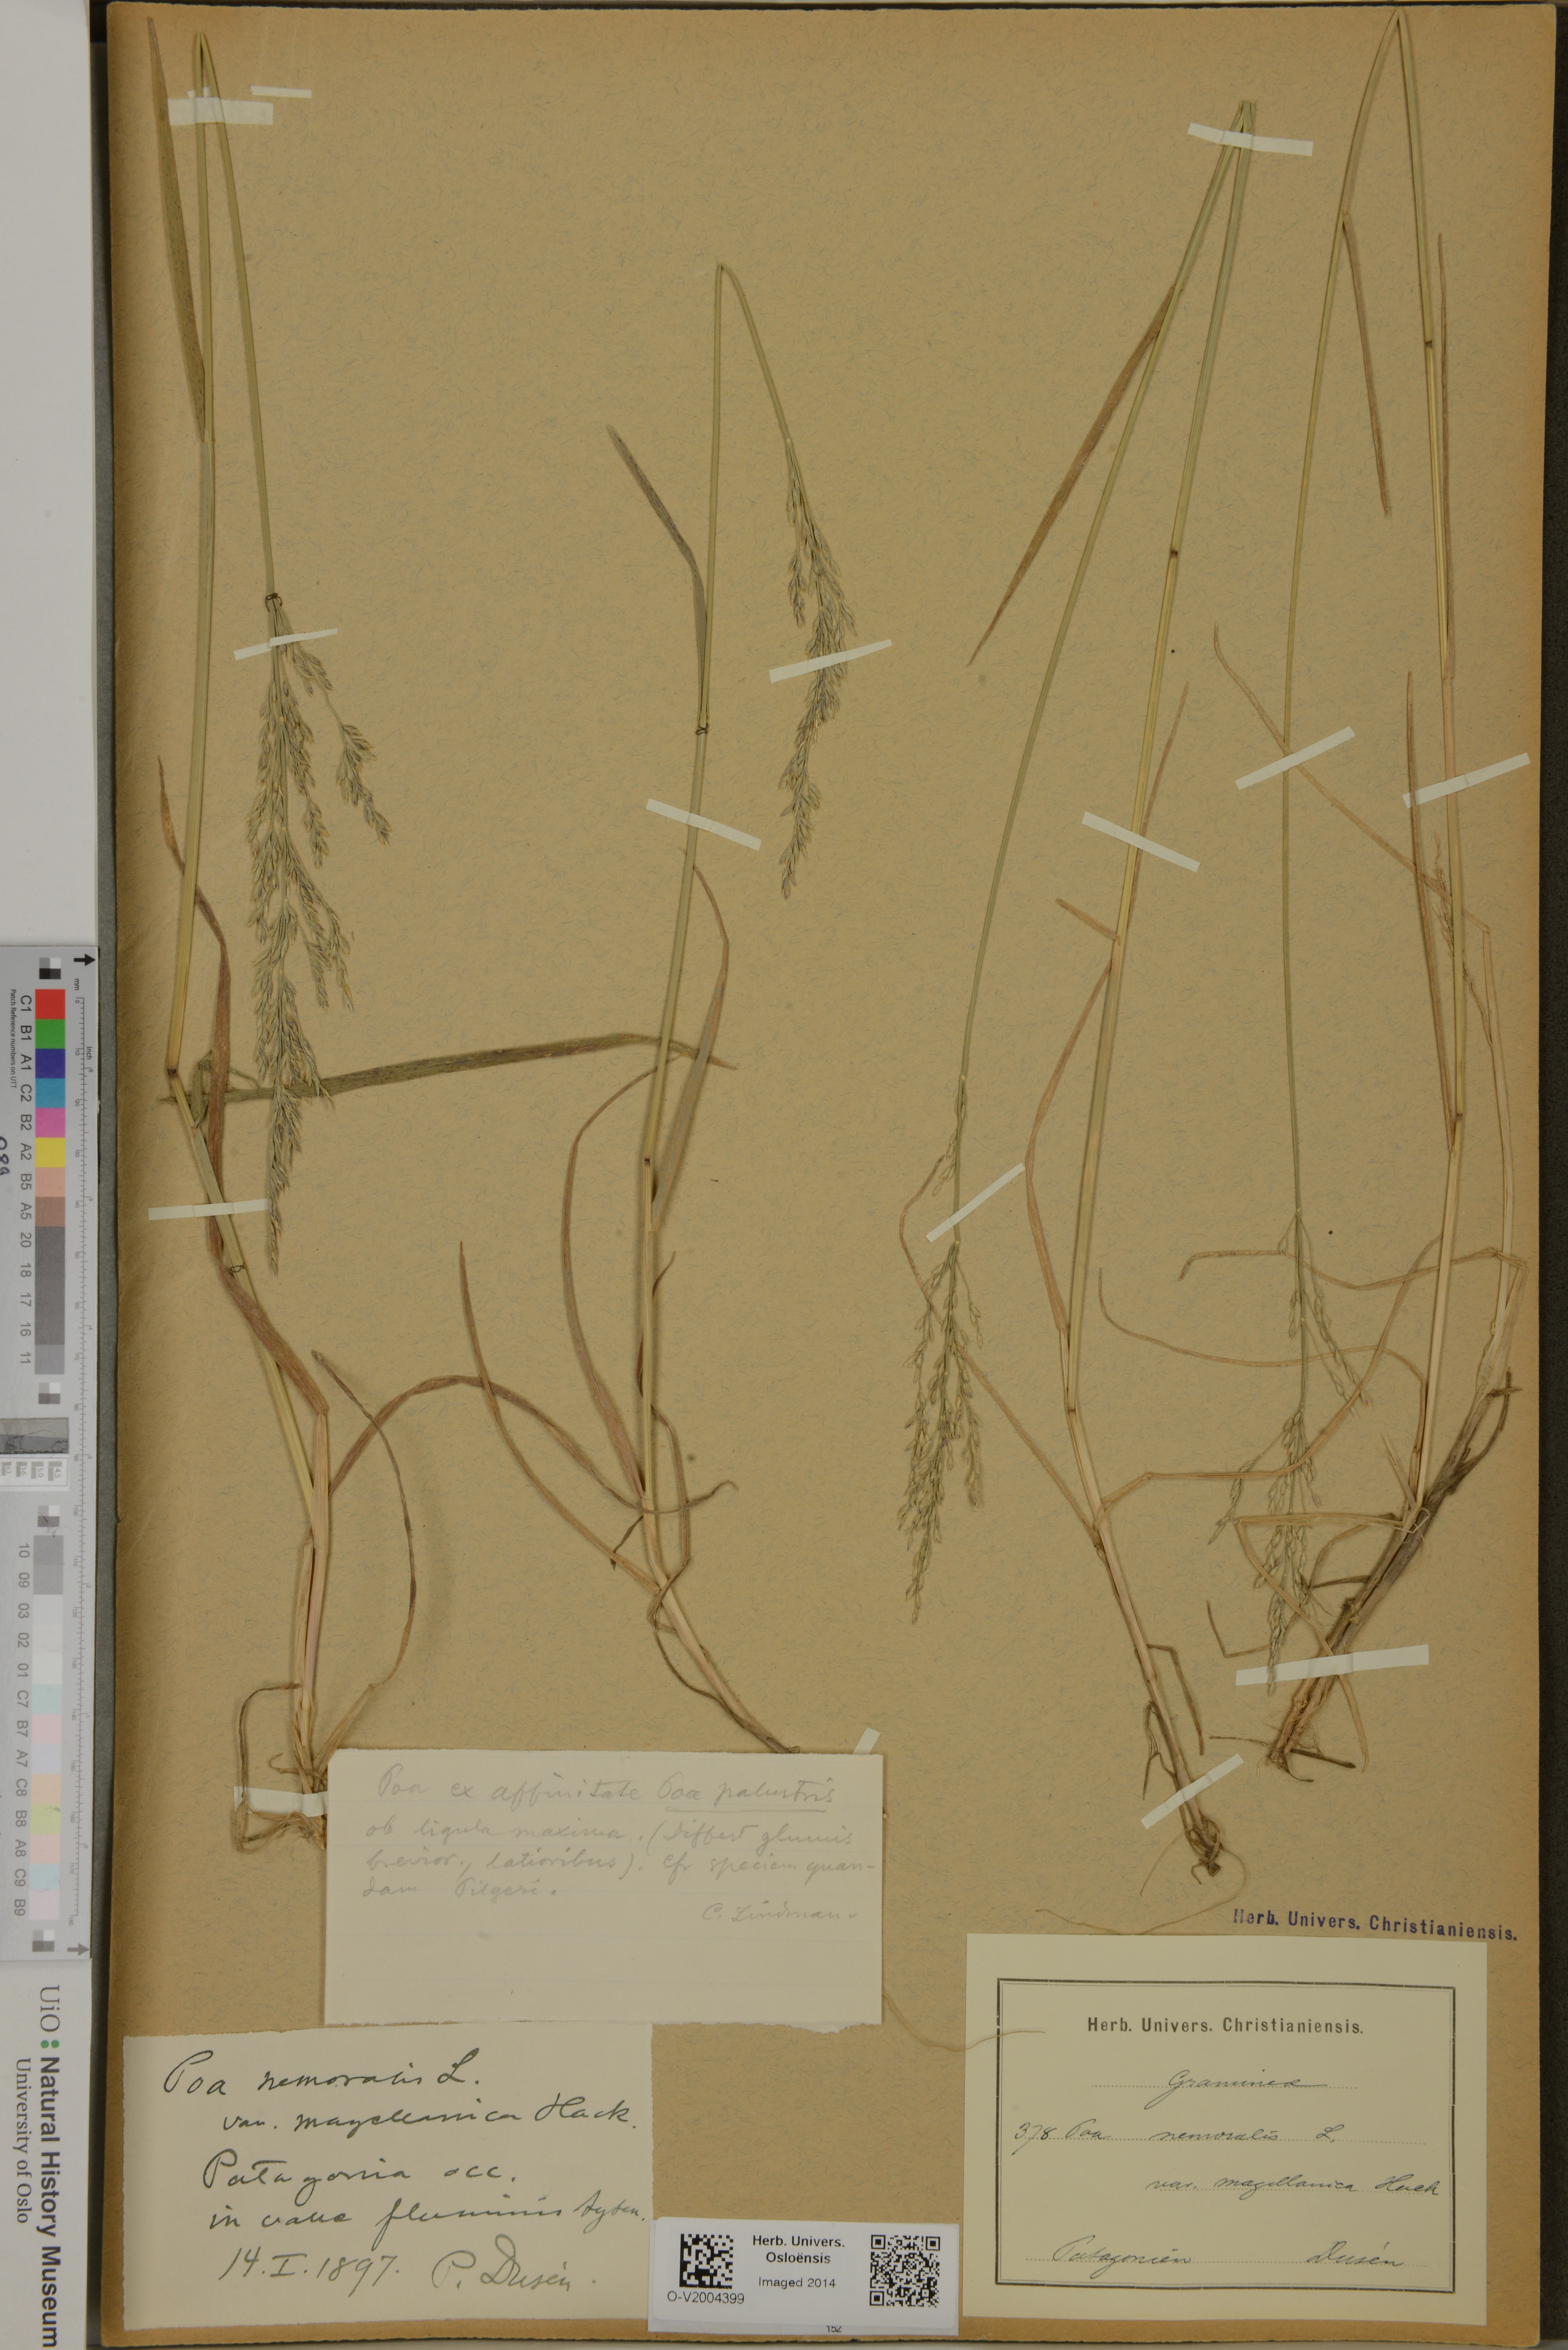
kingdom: Plantae
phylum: Tracheophyta
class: Liliopsida
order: Poales
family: Poaceae
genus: Poa
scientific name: Poa nemoralis
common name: Wood bluegrass
